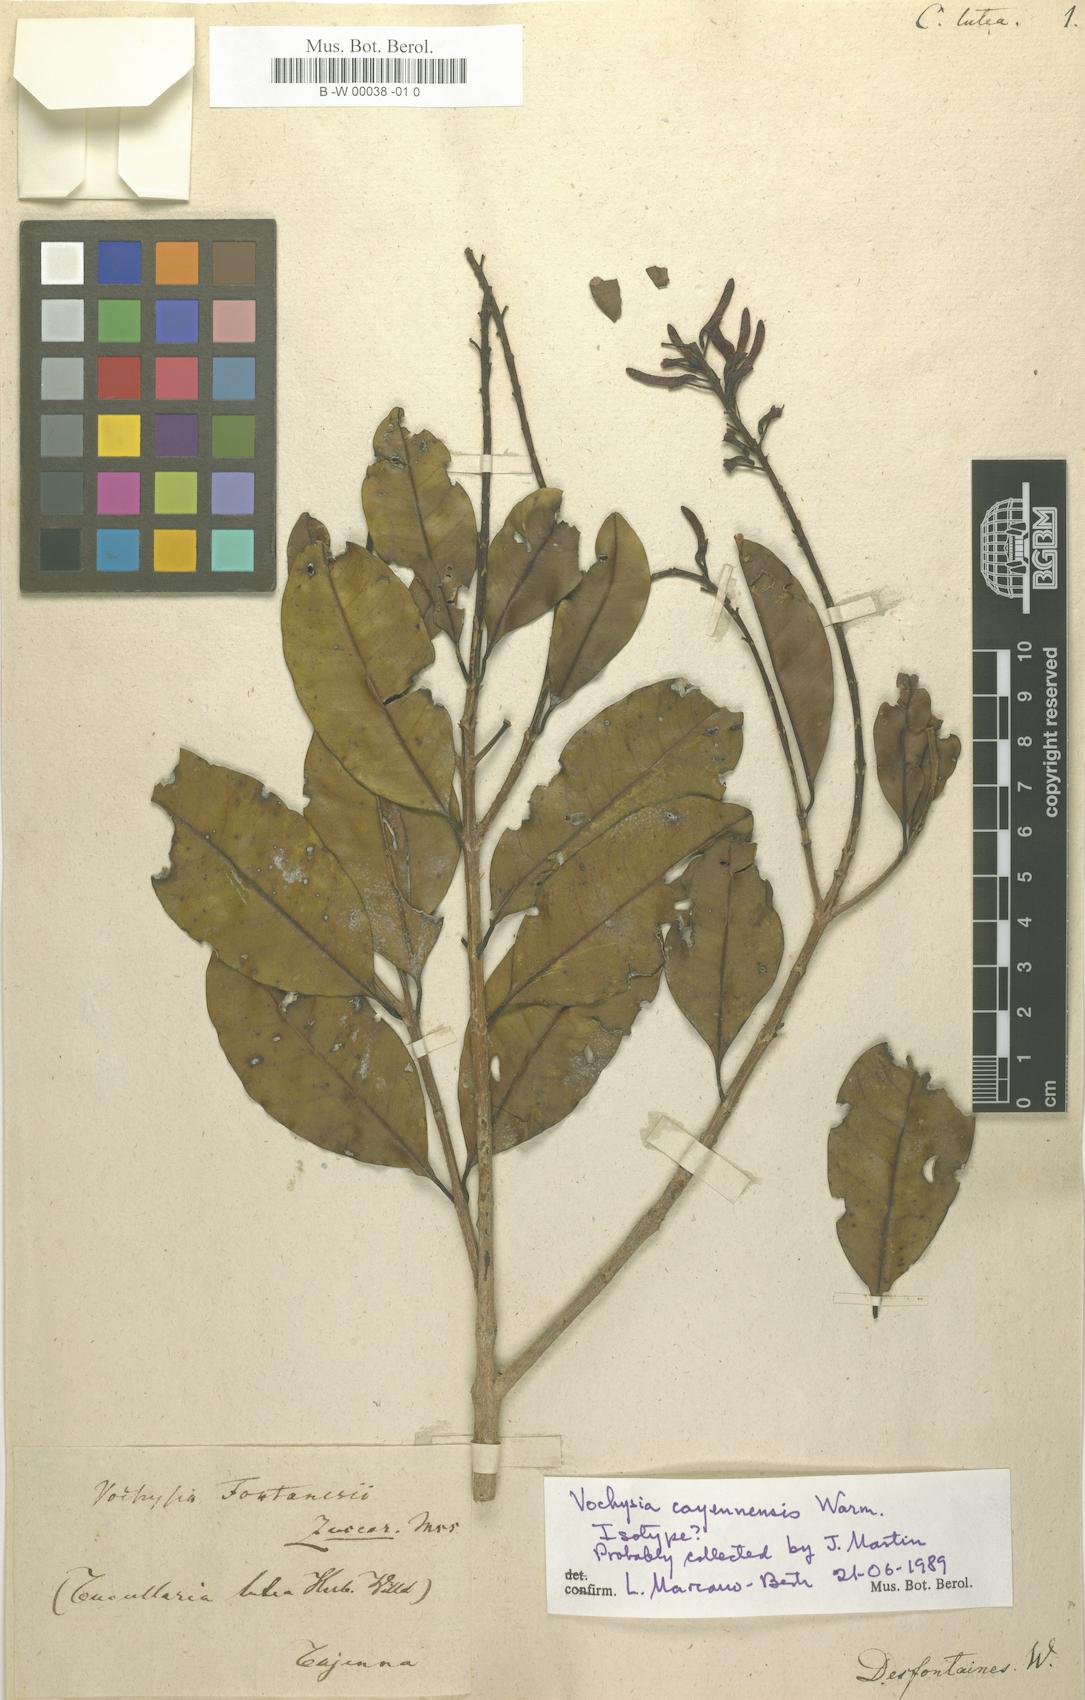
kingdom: Plantae
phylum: Tracheophyta
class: Magnoliopsida
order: Myrtales
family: Vochysiaceae
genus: Vochysia
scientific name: Vochysia emarginata
